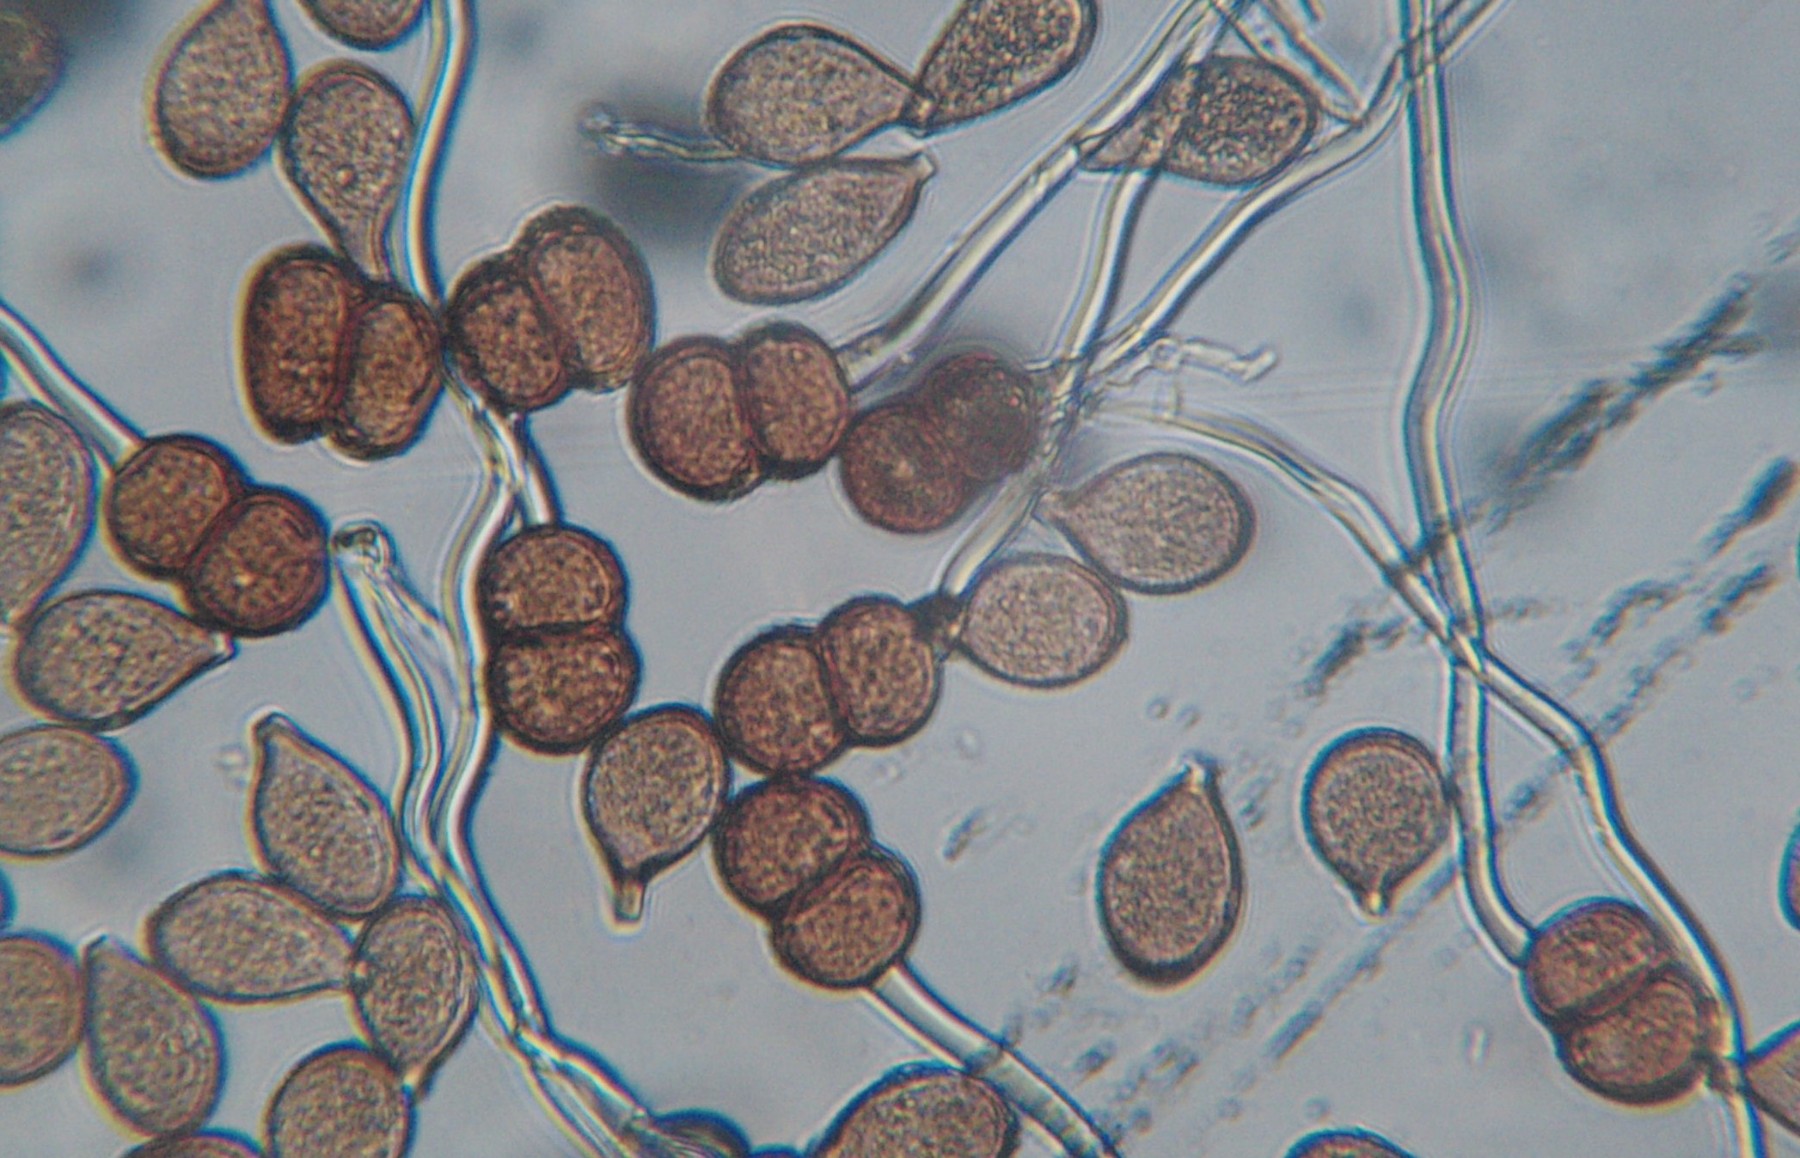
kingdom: Fungi
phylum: Basidiomycota
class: Pucciniomycetes
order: Pucciniales
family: Pucciniaceae
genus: Cumminsiella
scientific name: Cumminsiella mirabilissima
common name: mahonierust
